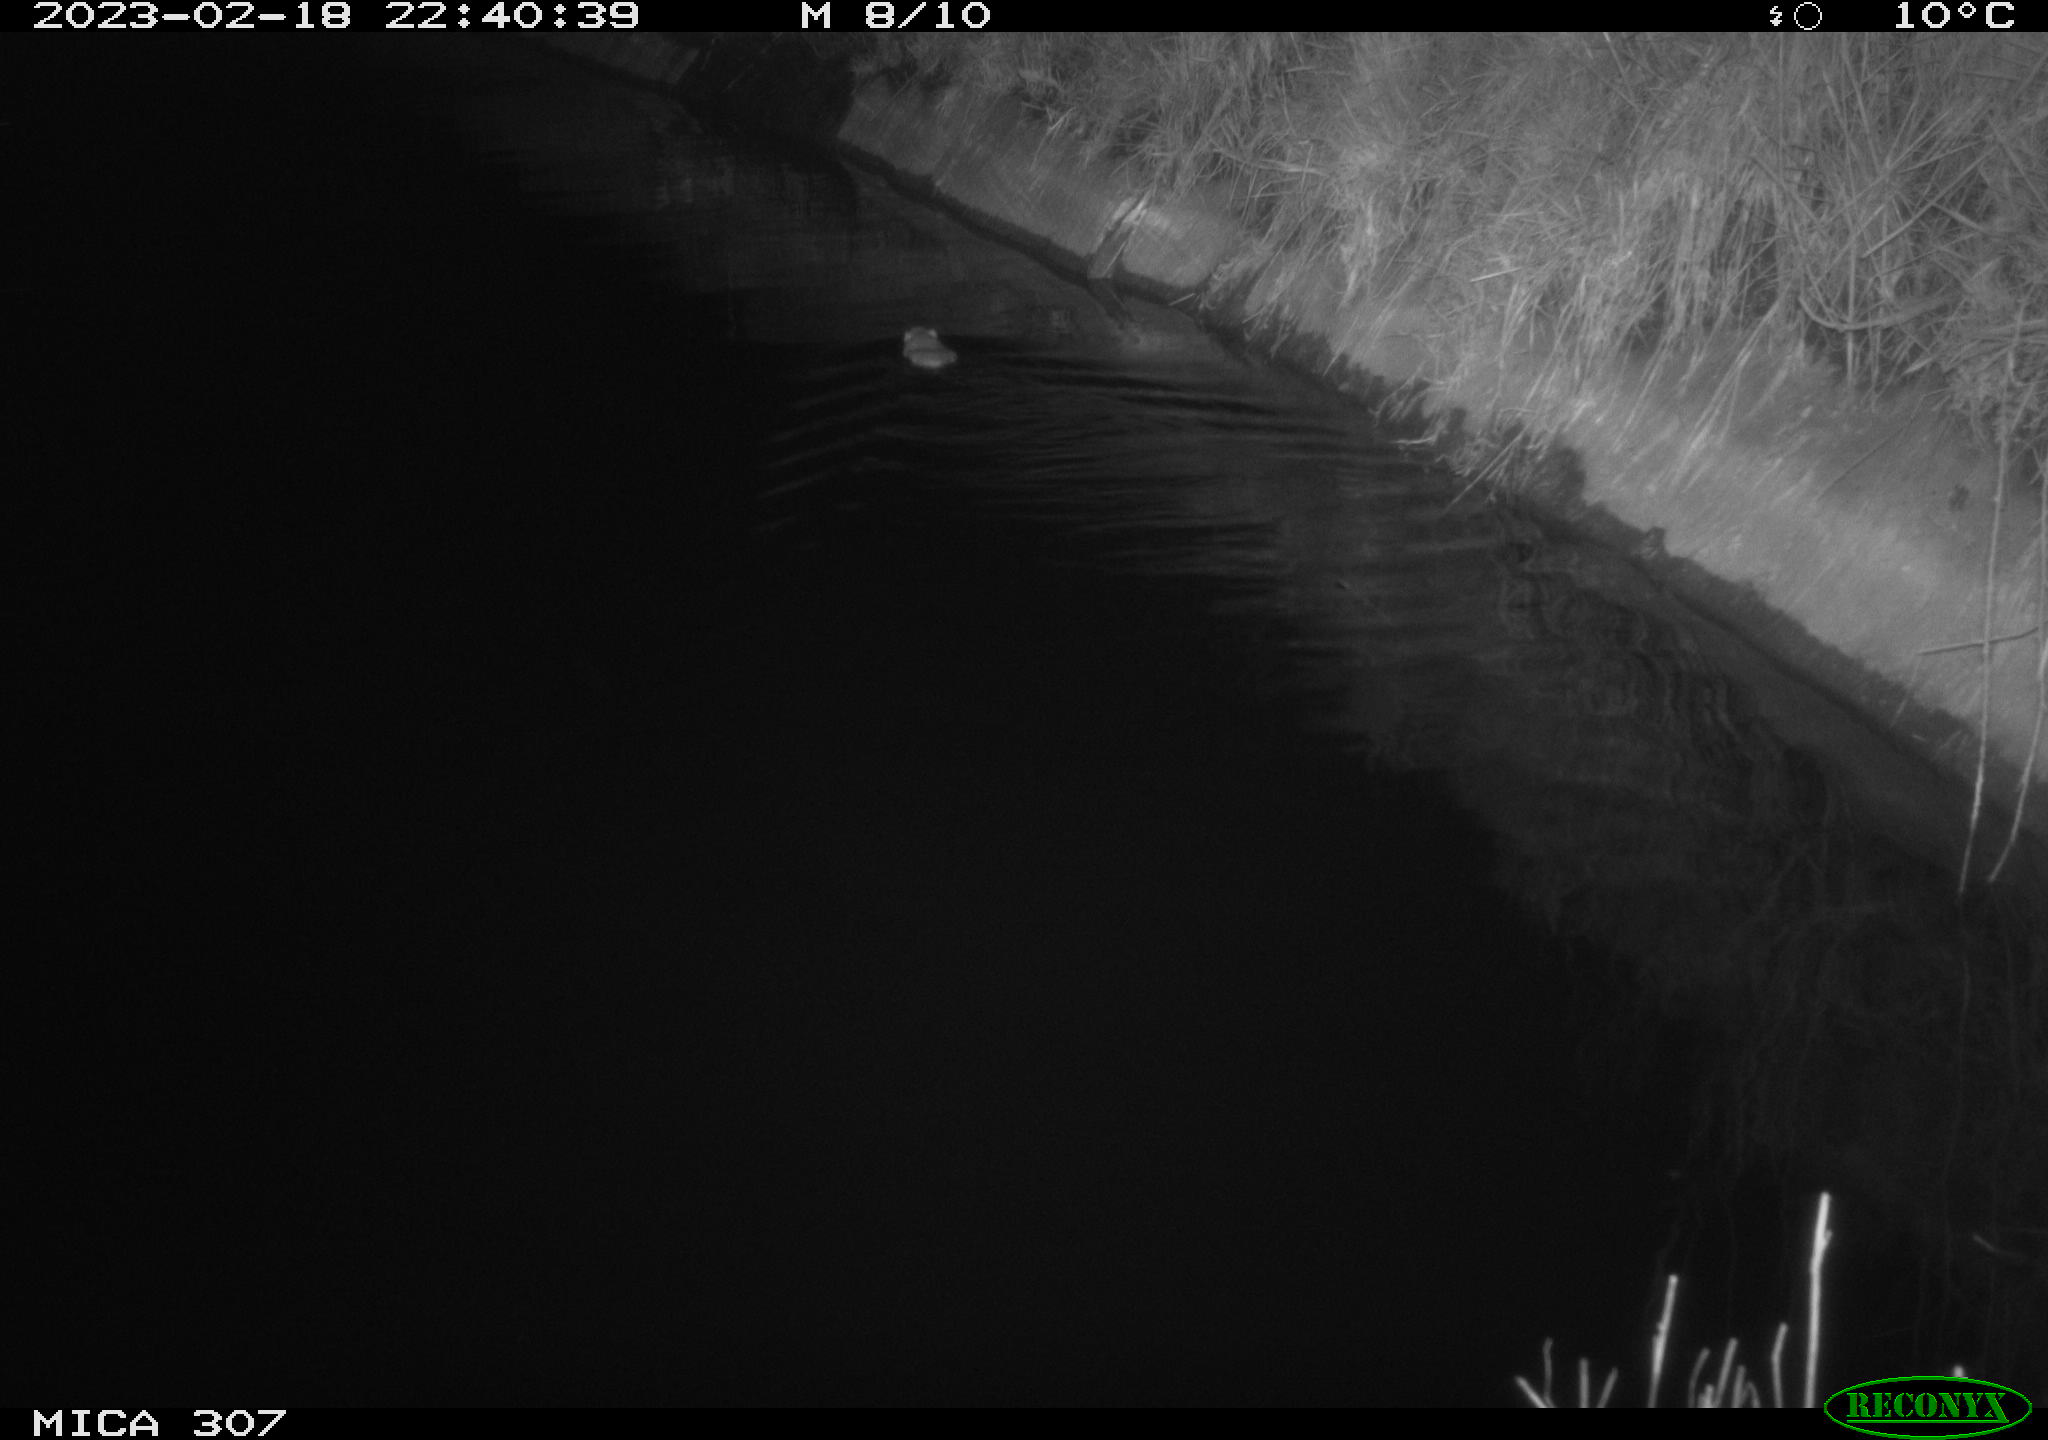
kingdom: Animalia
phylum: Chordata
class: Mammalia
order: Rodentia
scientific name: Rodentia
